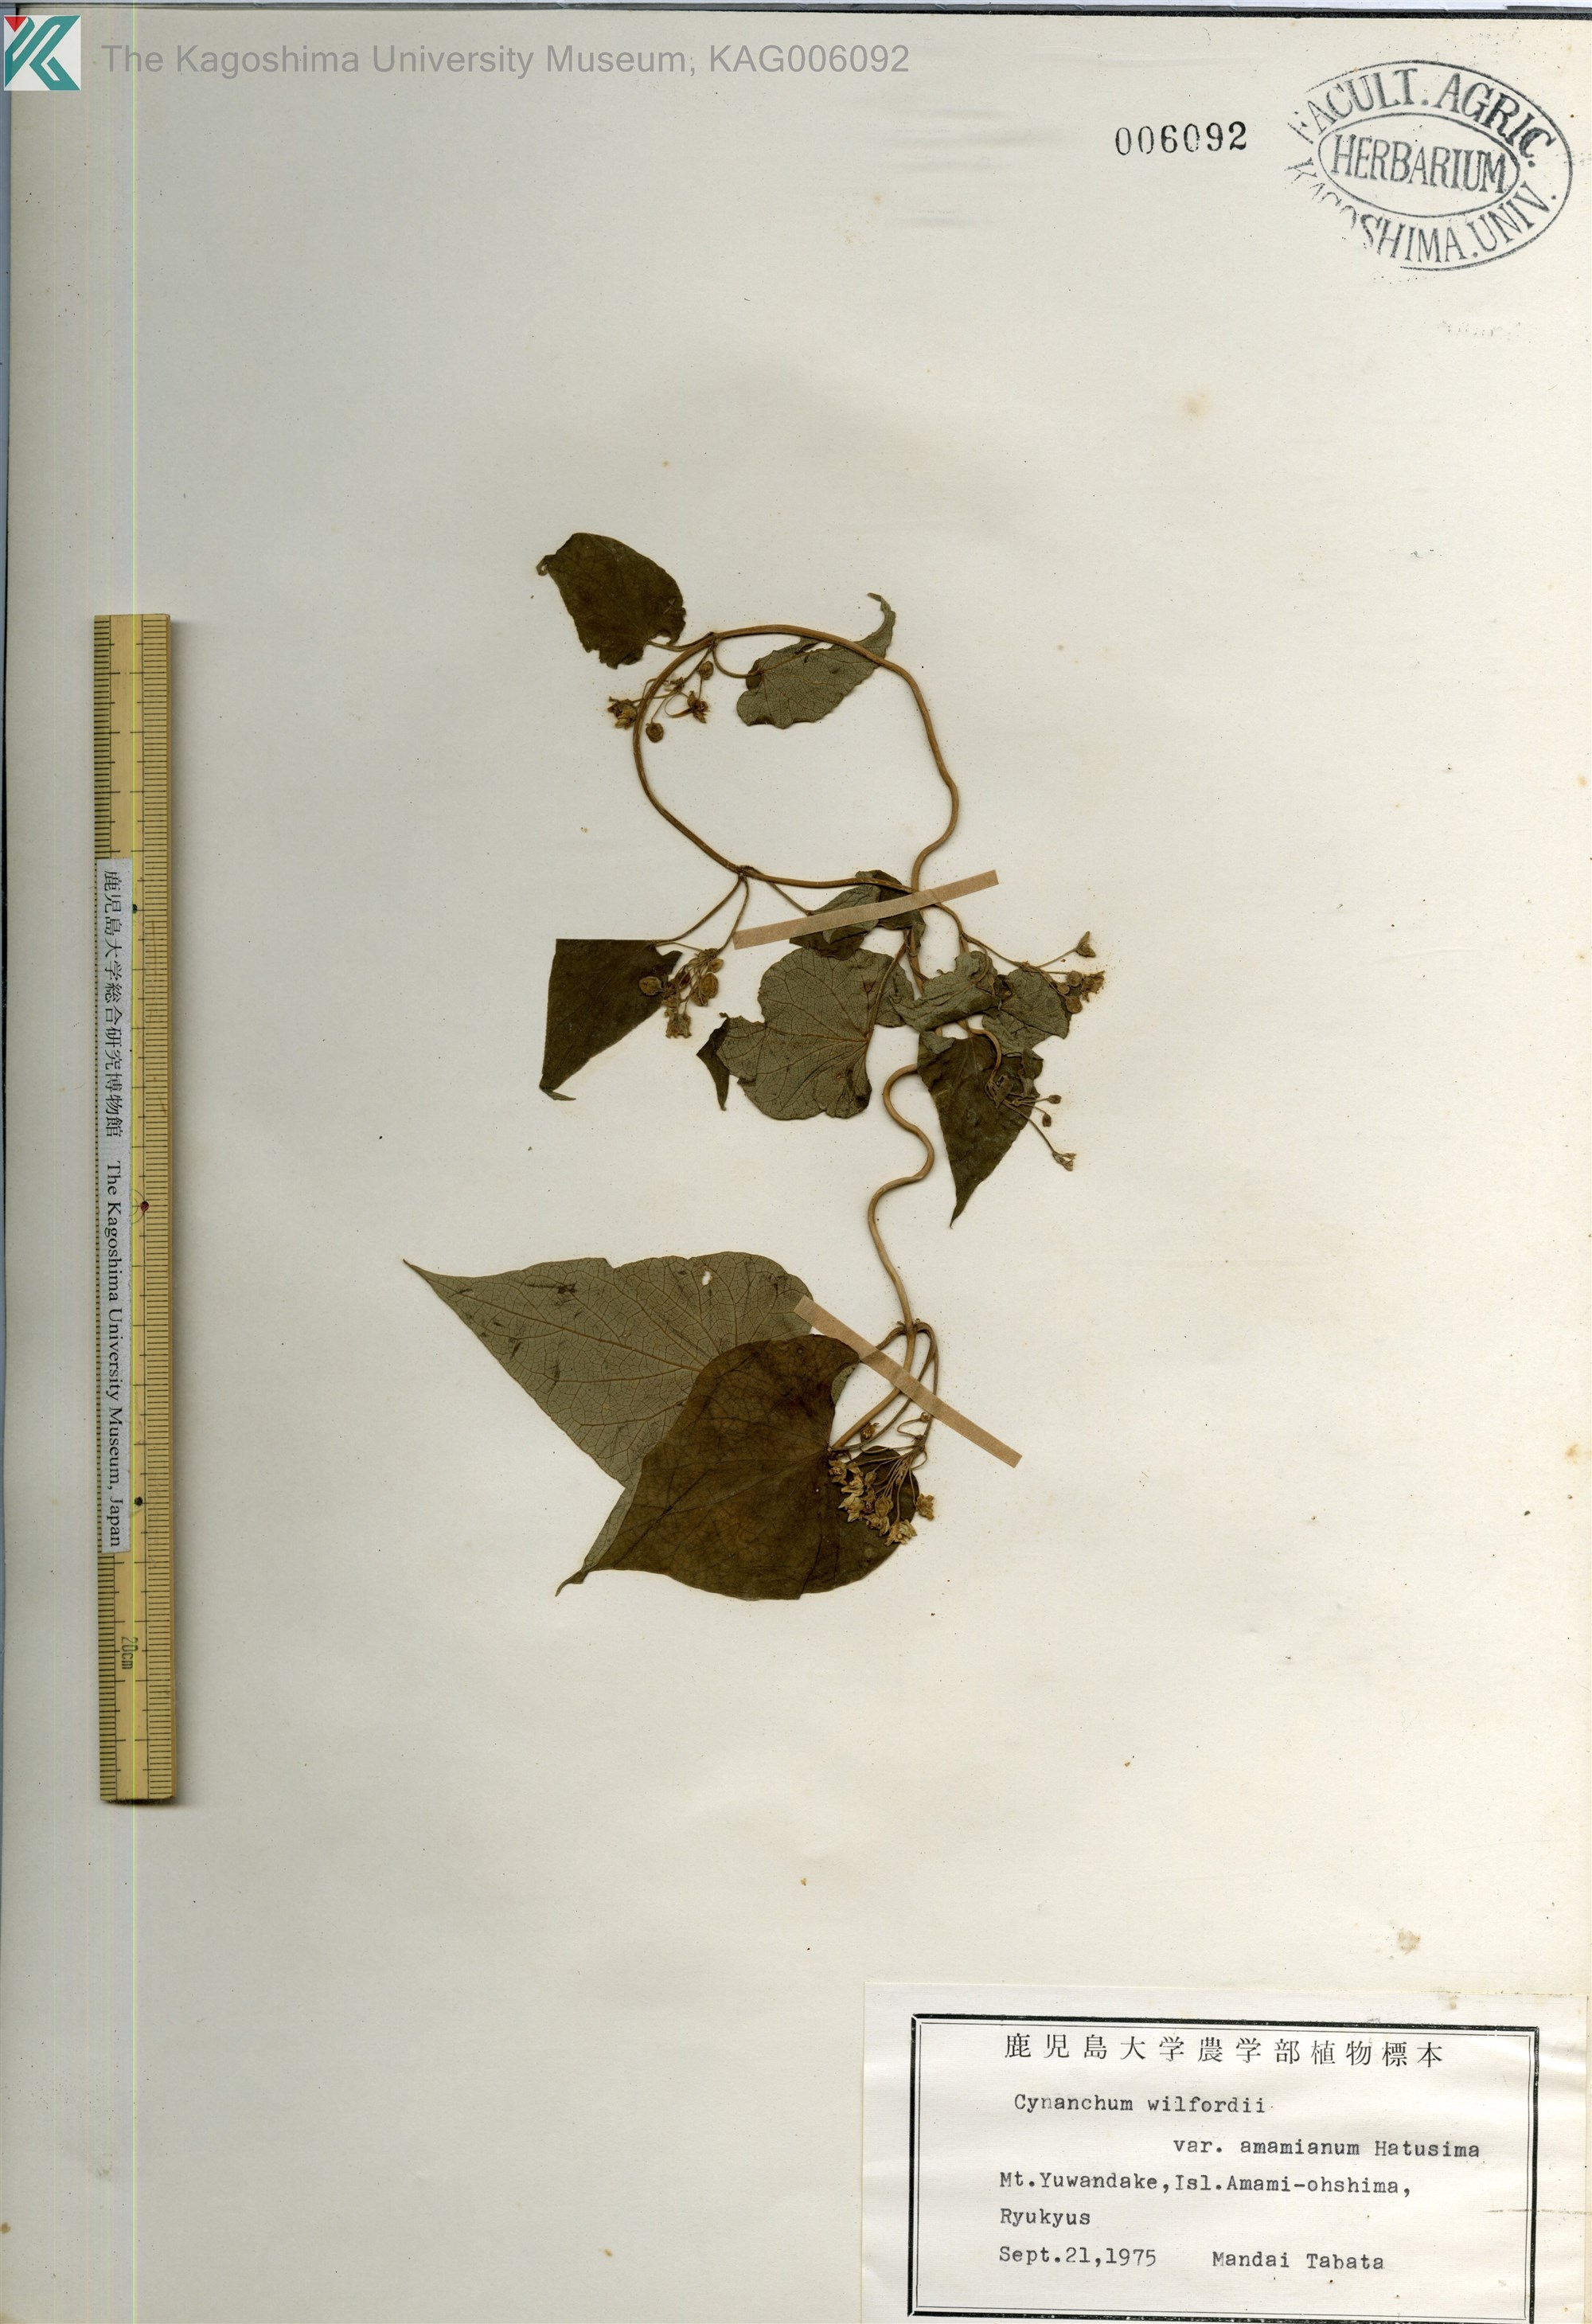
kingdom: Plantae
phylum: Tracheophyta
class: Magnoliopsida
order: Gentianales
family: Apocynaceae
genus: Cynanchum
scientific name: Cynanchum boudieri
